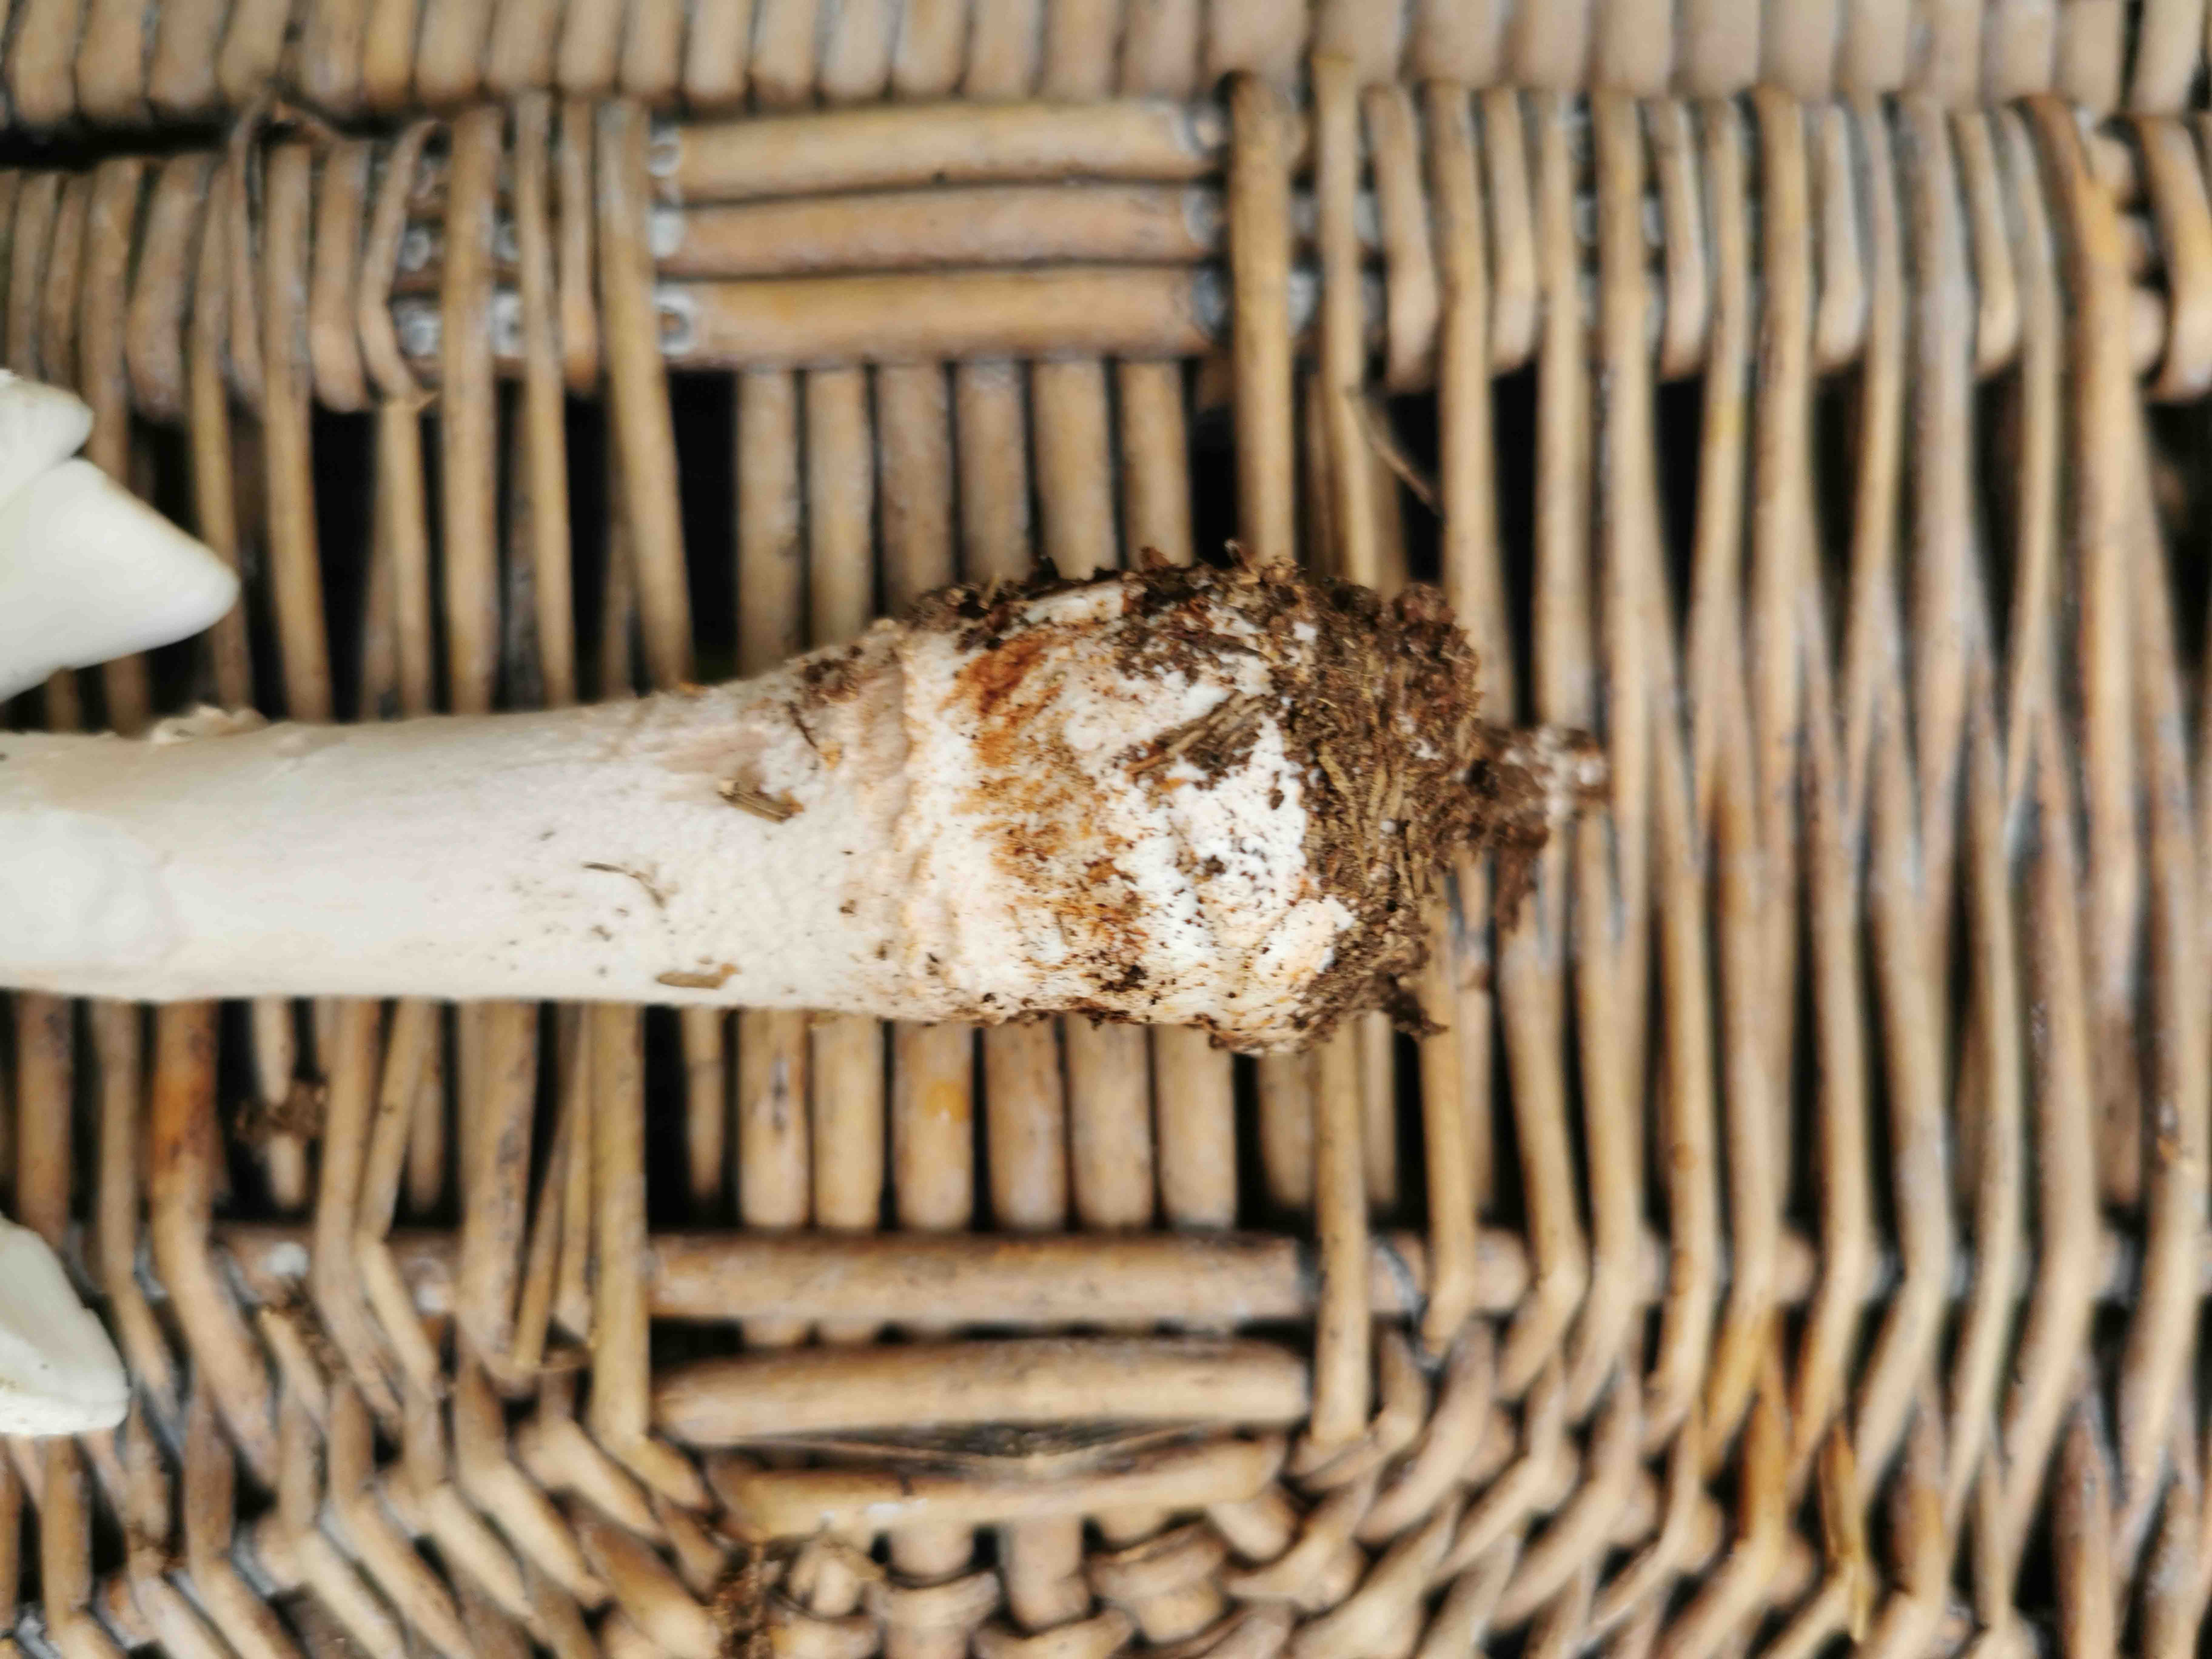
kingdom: Fungi
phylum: Basidiomycota
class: Agaricomycetes
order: Agaricales
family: Amanitaceae
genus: Amanita
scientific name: Amanita
